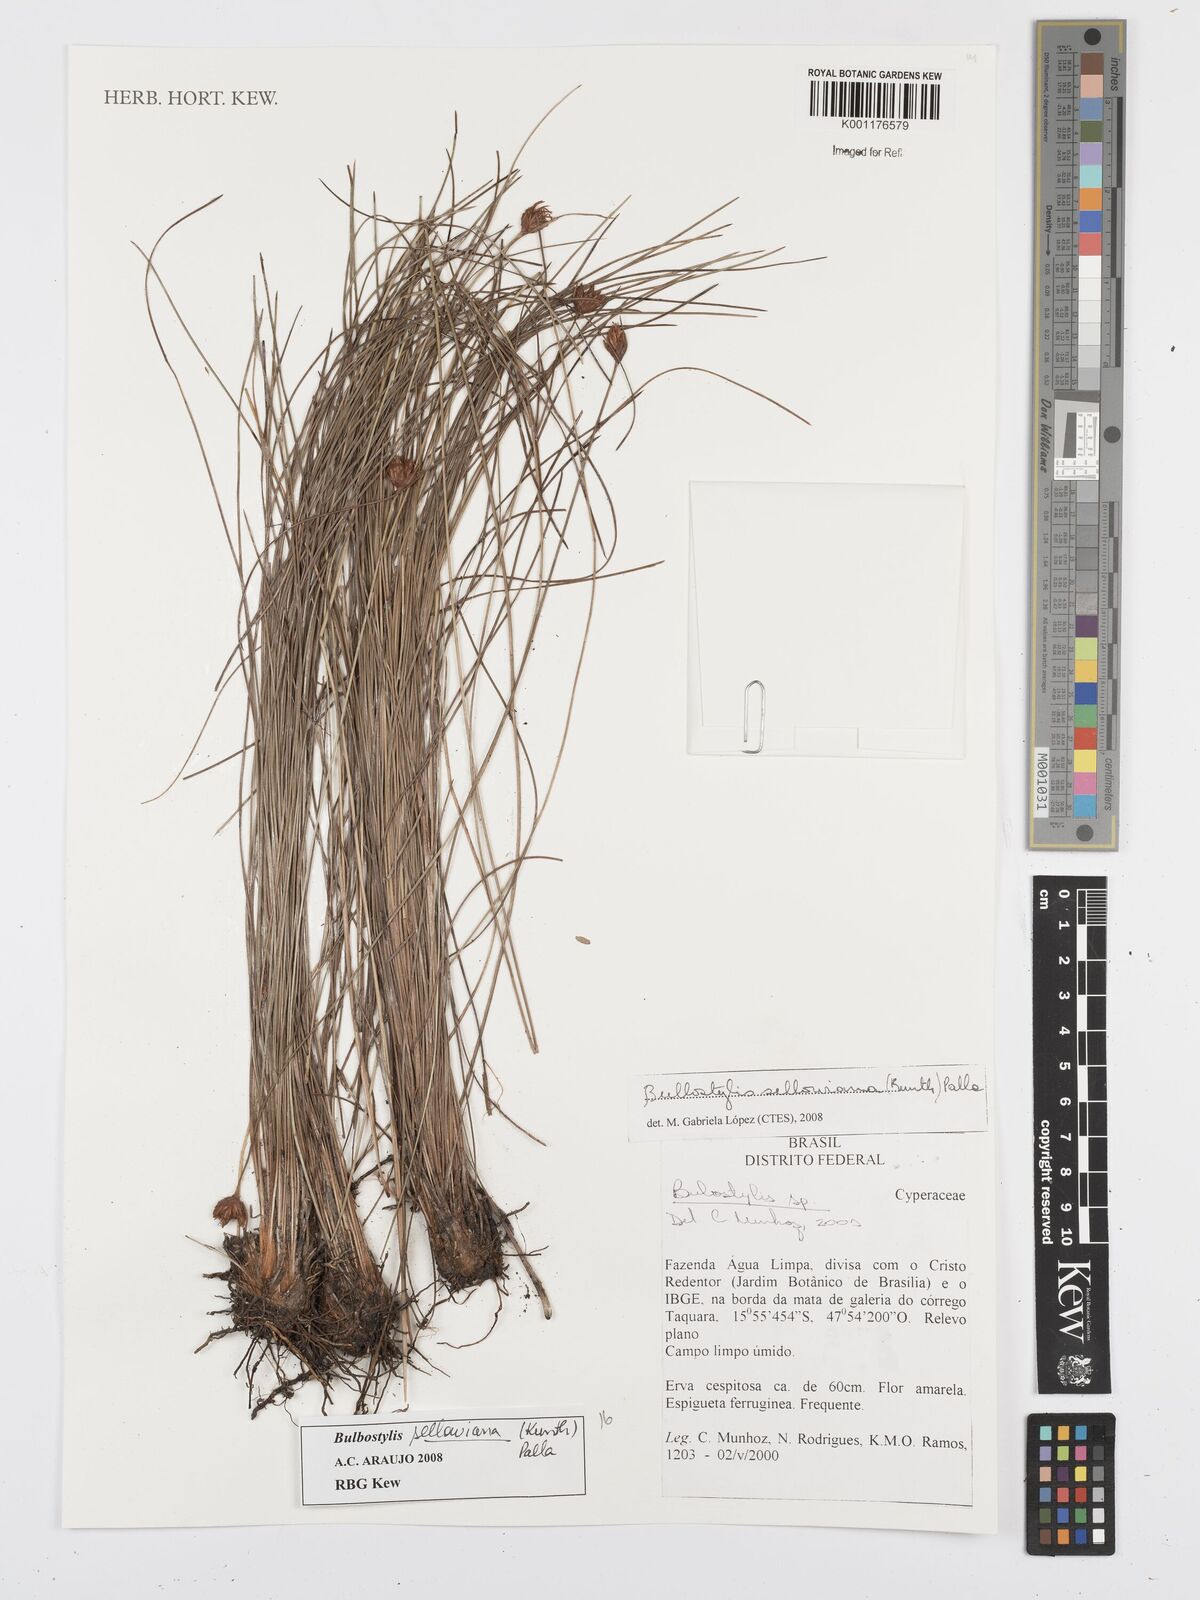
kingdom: Plantae
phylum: Tracheophyta
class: Liliopsida
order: Poales
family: Cyperaceae
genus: Bulbostylis
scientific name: Bulbostylis sellowiana
